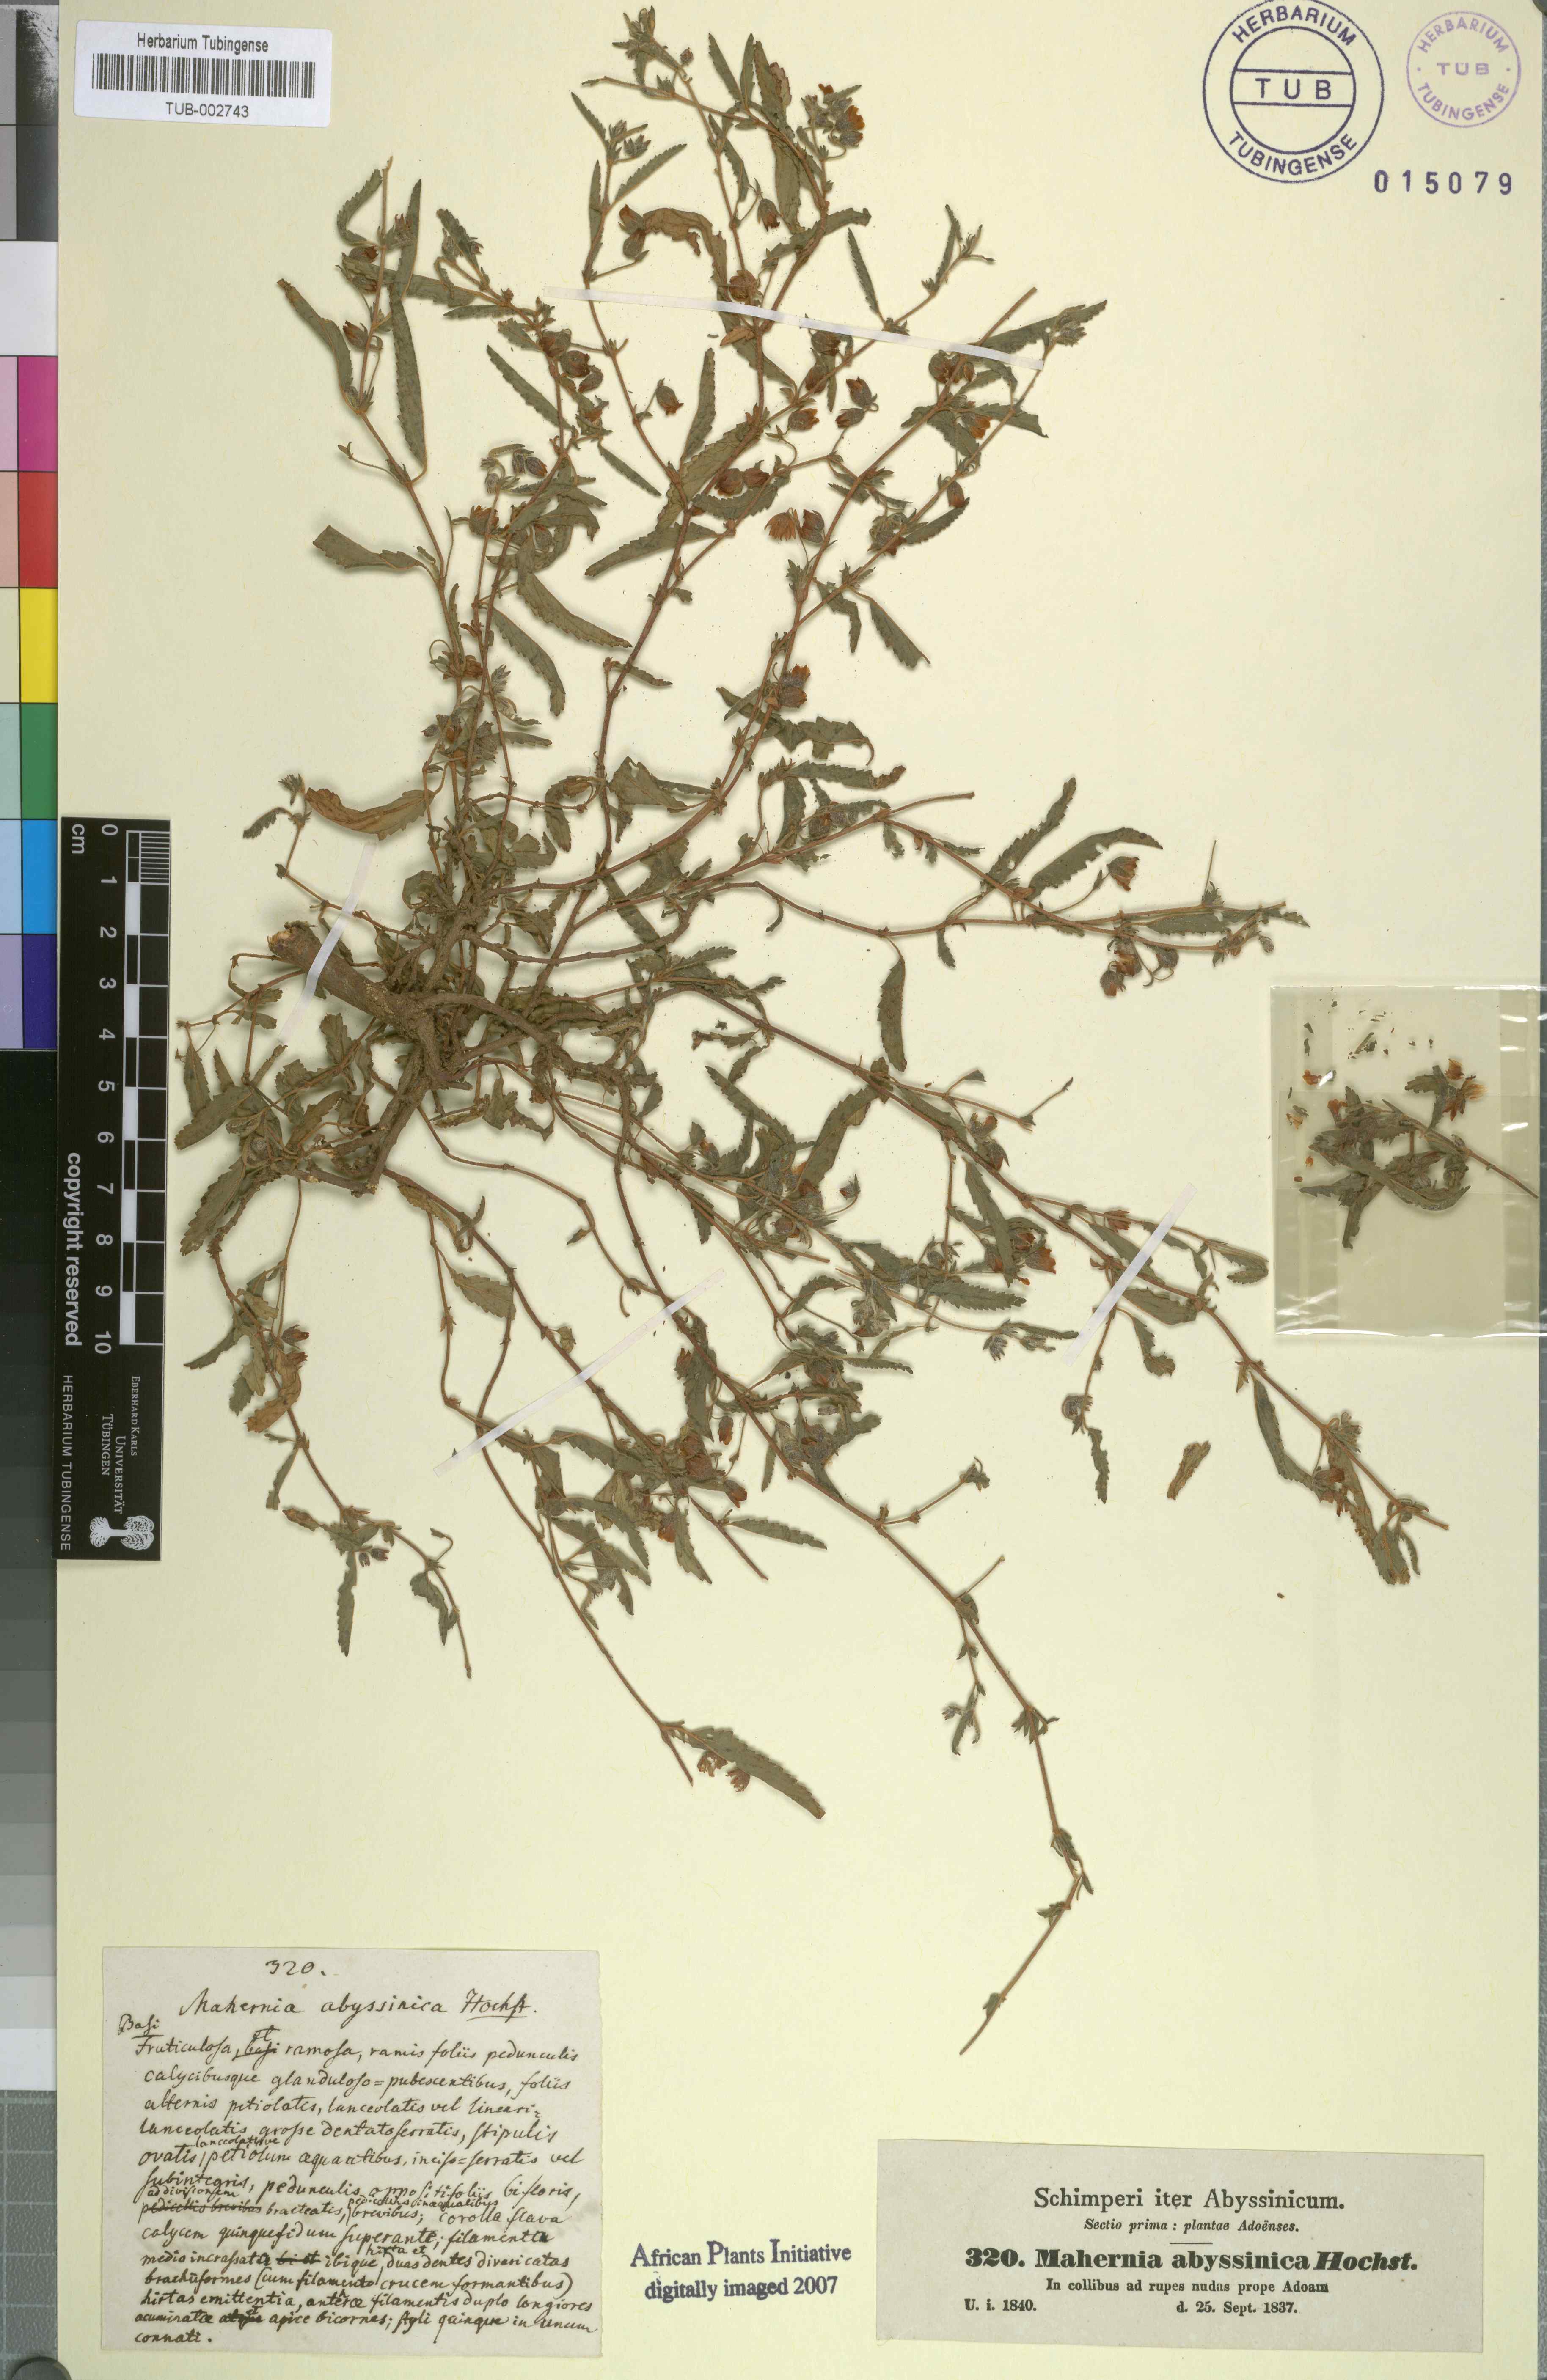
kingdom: Plantae
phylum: Tracheophyta
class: Magnoliopsida
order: Malvales
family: Malvaceae
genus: Hermannia
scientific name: Hermannia quartiniana
